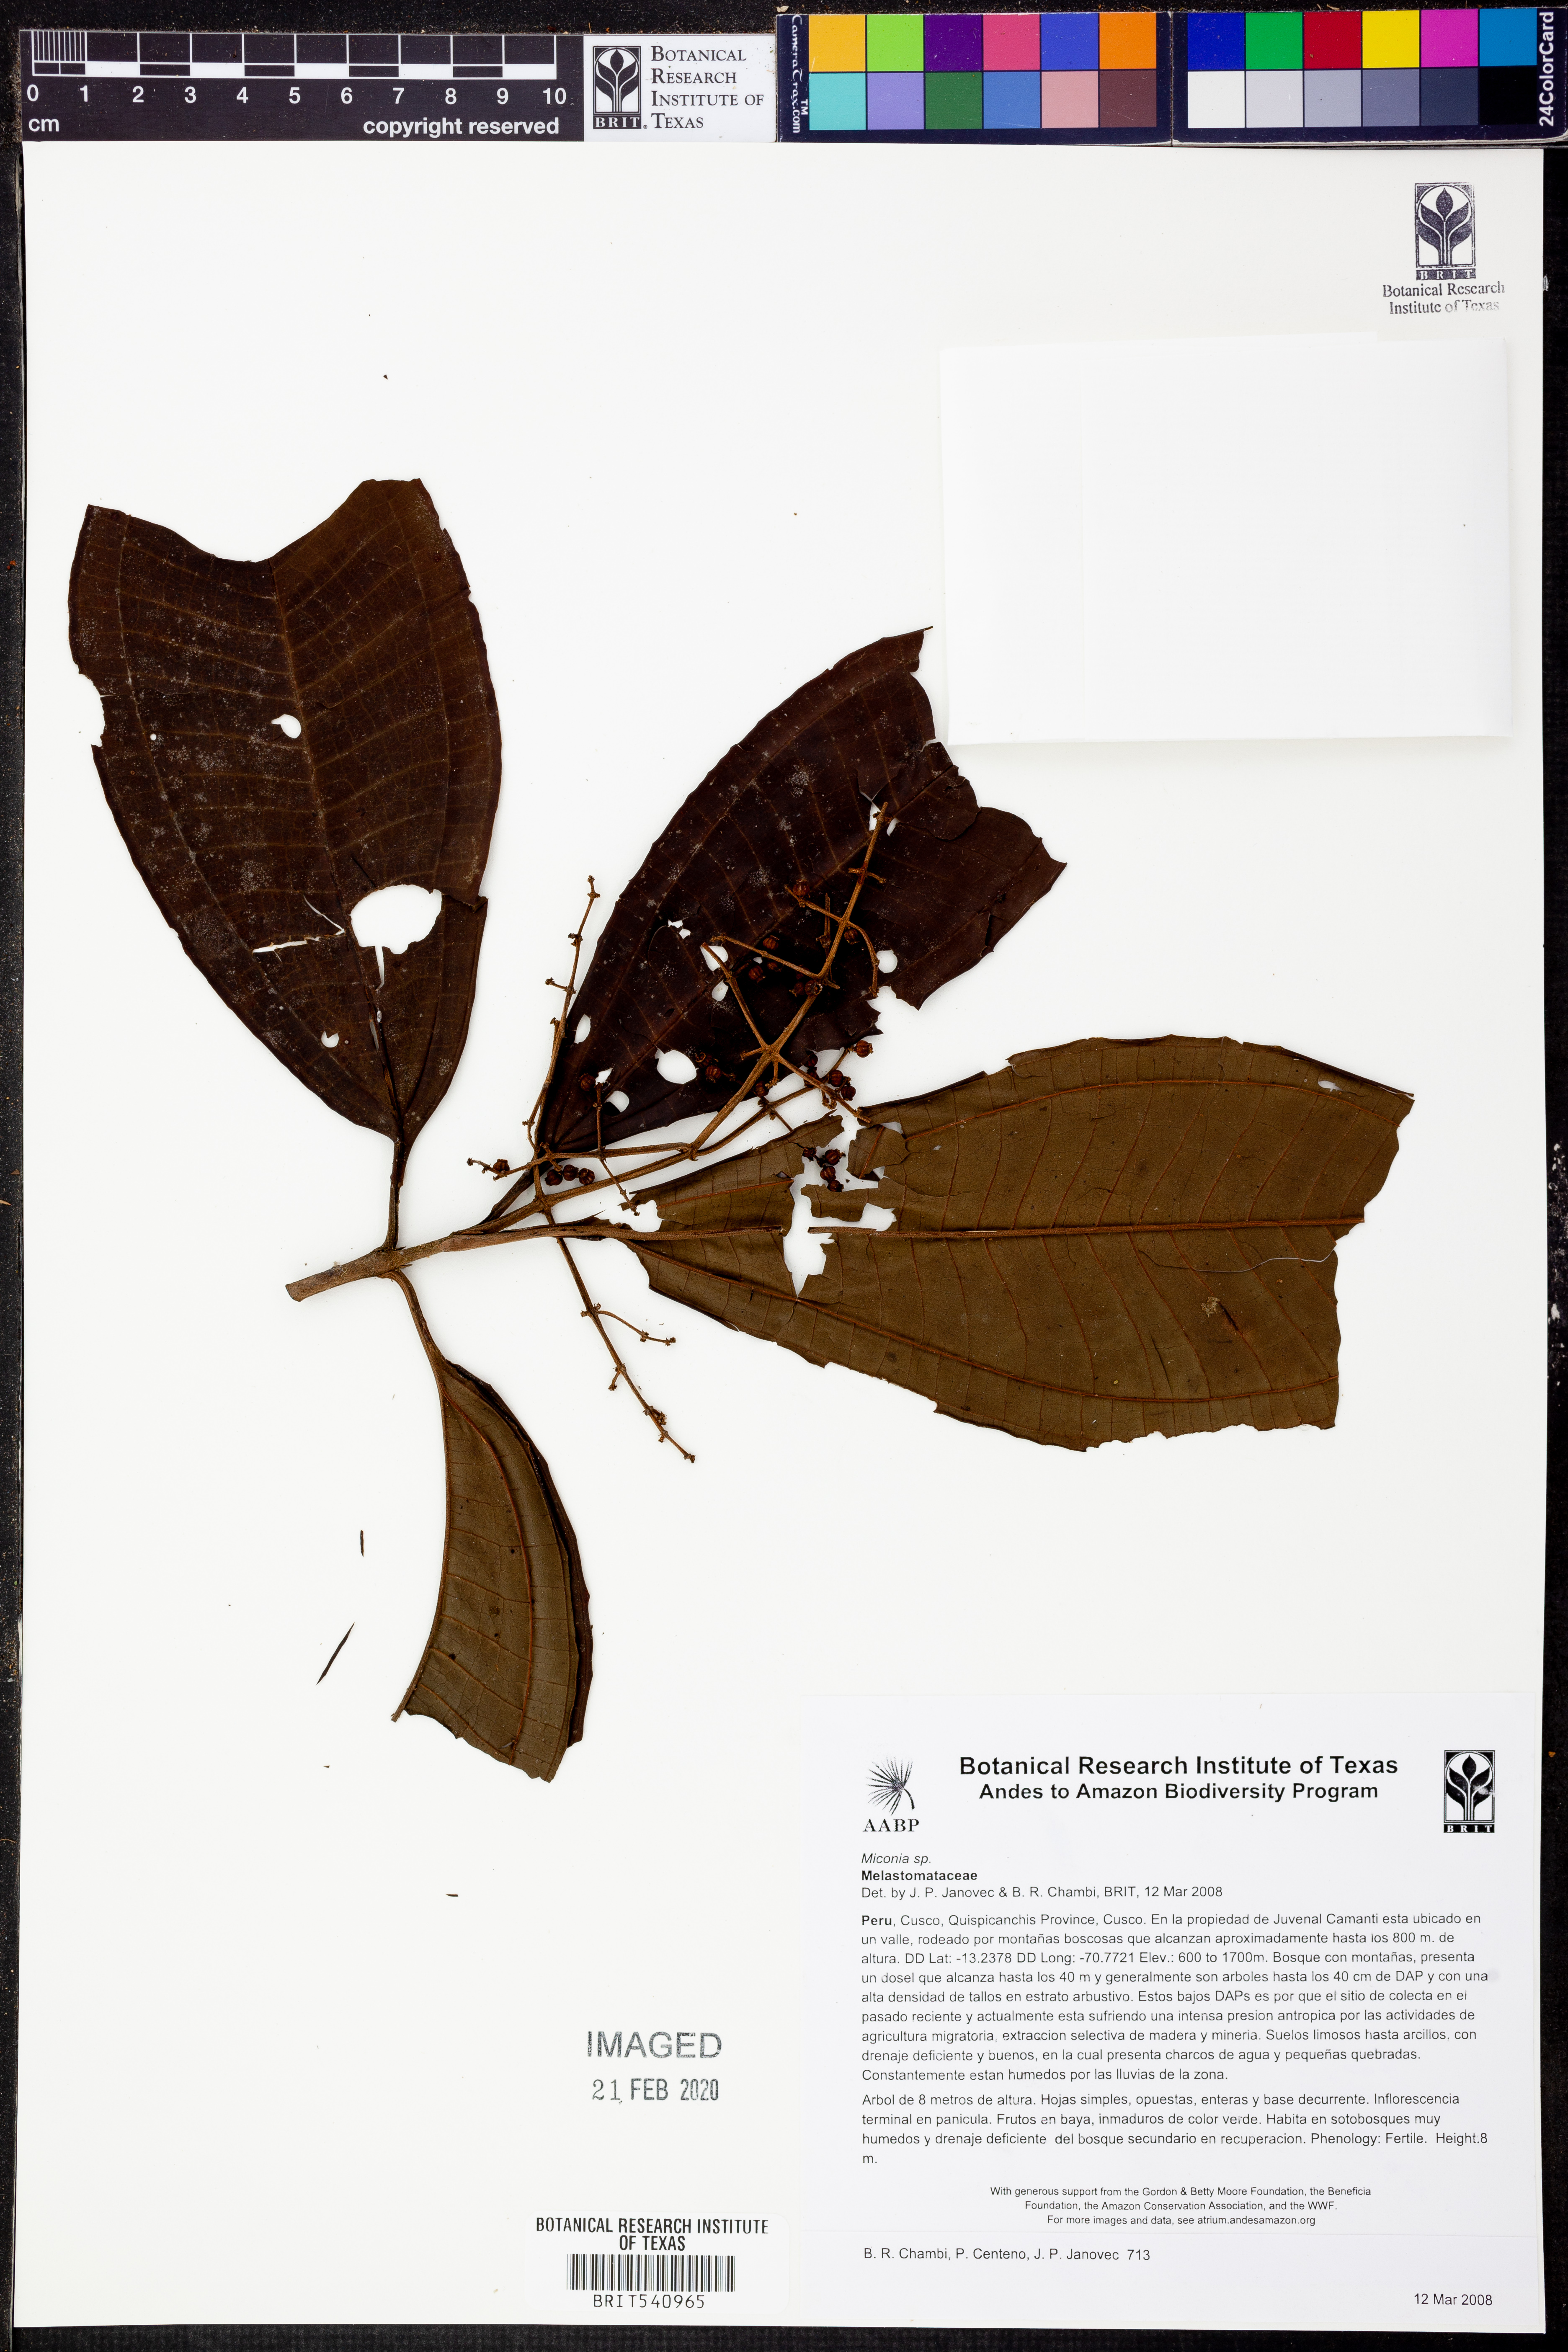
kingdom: Plantae
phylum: Tracheophyta
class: Magnoliopsida
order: Myrtales
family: Melastomataceae
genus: Miconia
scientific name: Miconia
